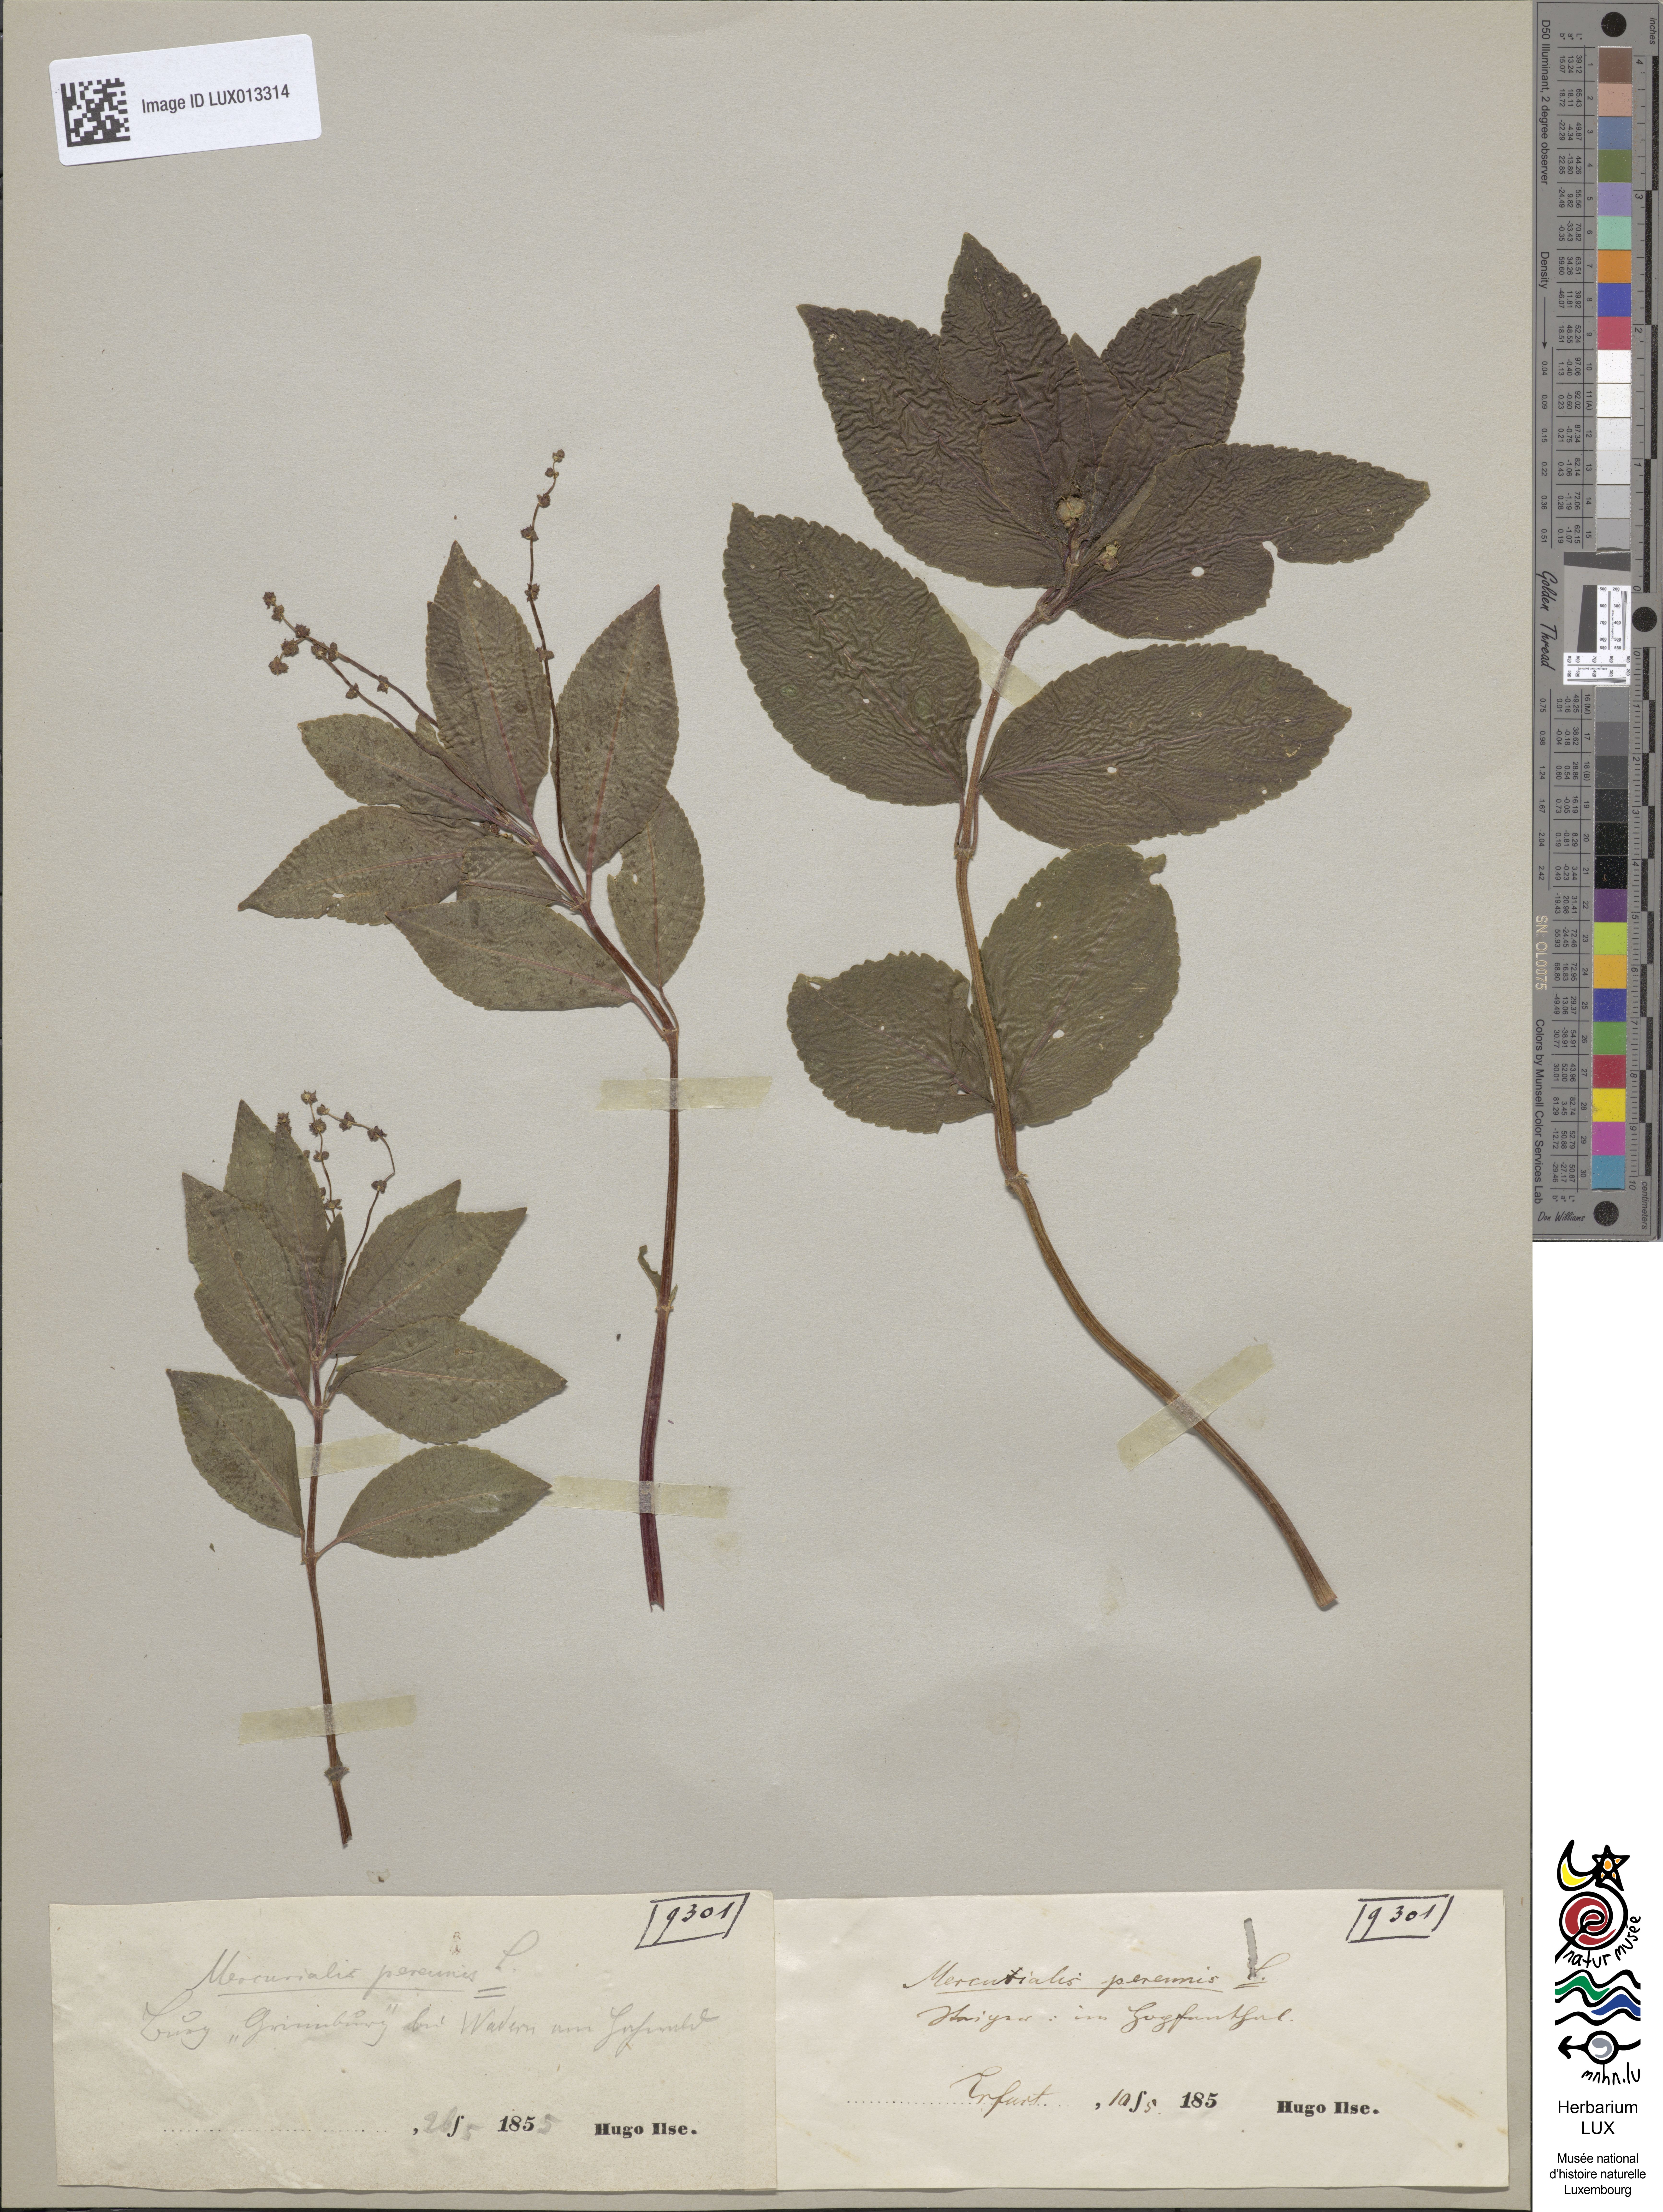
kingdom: Plantae
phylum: Tracheophyta
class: Magnoliopsida
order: Malpighiales
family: Euphorbiaceae
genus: Mercurialis
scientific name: Mercurialis perennis
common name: Dog mercury
